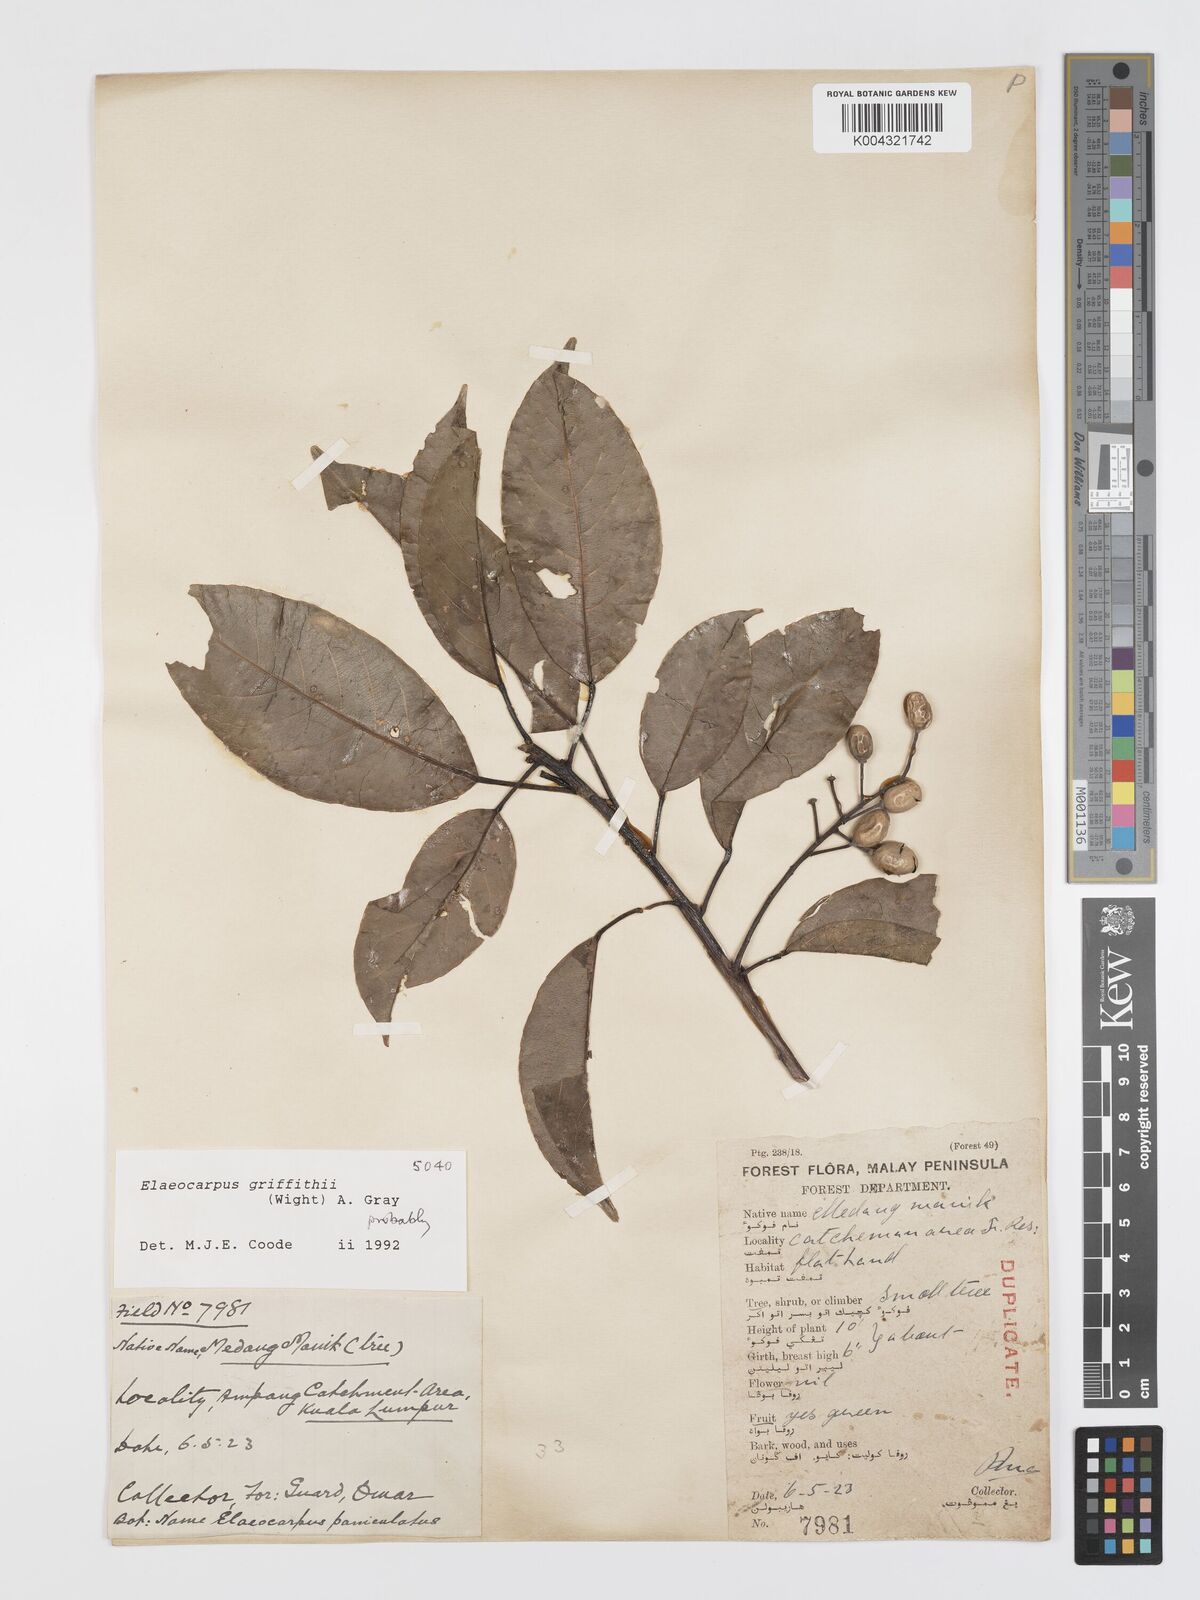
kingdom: Plantae
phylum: Tracheophyta
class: Magnoliopsida
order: Oxalidales
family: Elaeocarpaceae
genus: Elaeocarpus
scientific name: Elaeocarpus griffithii
